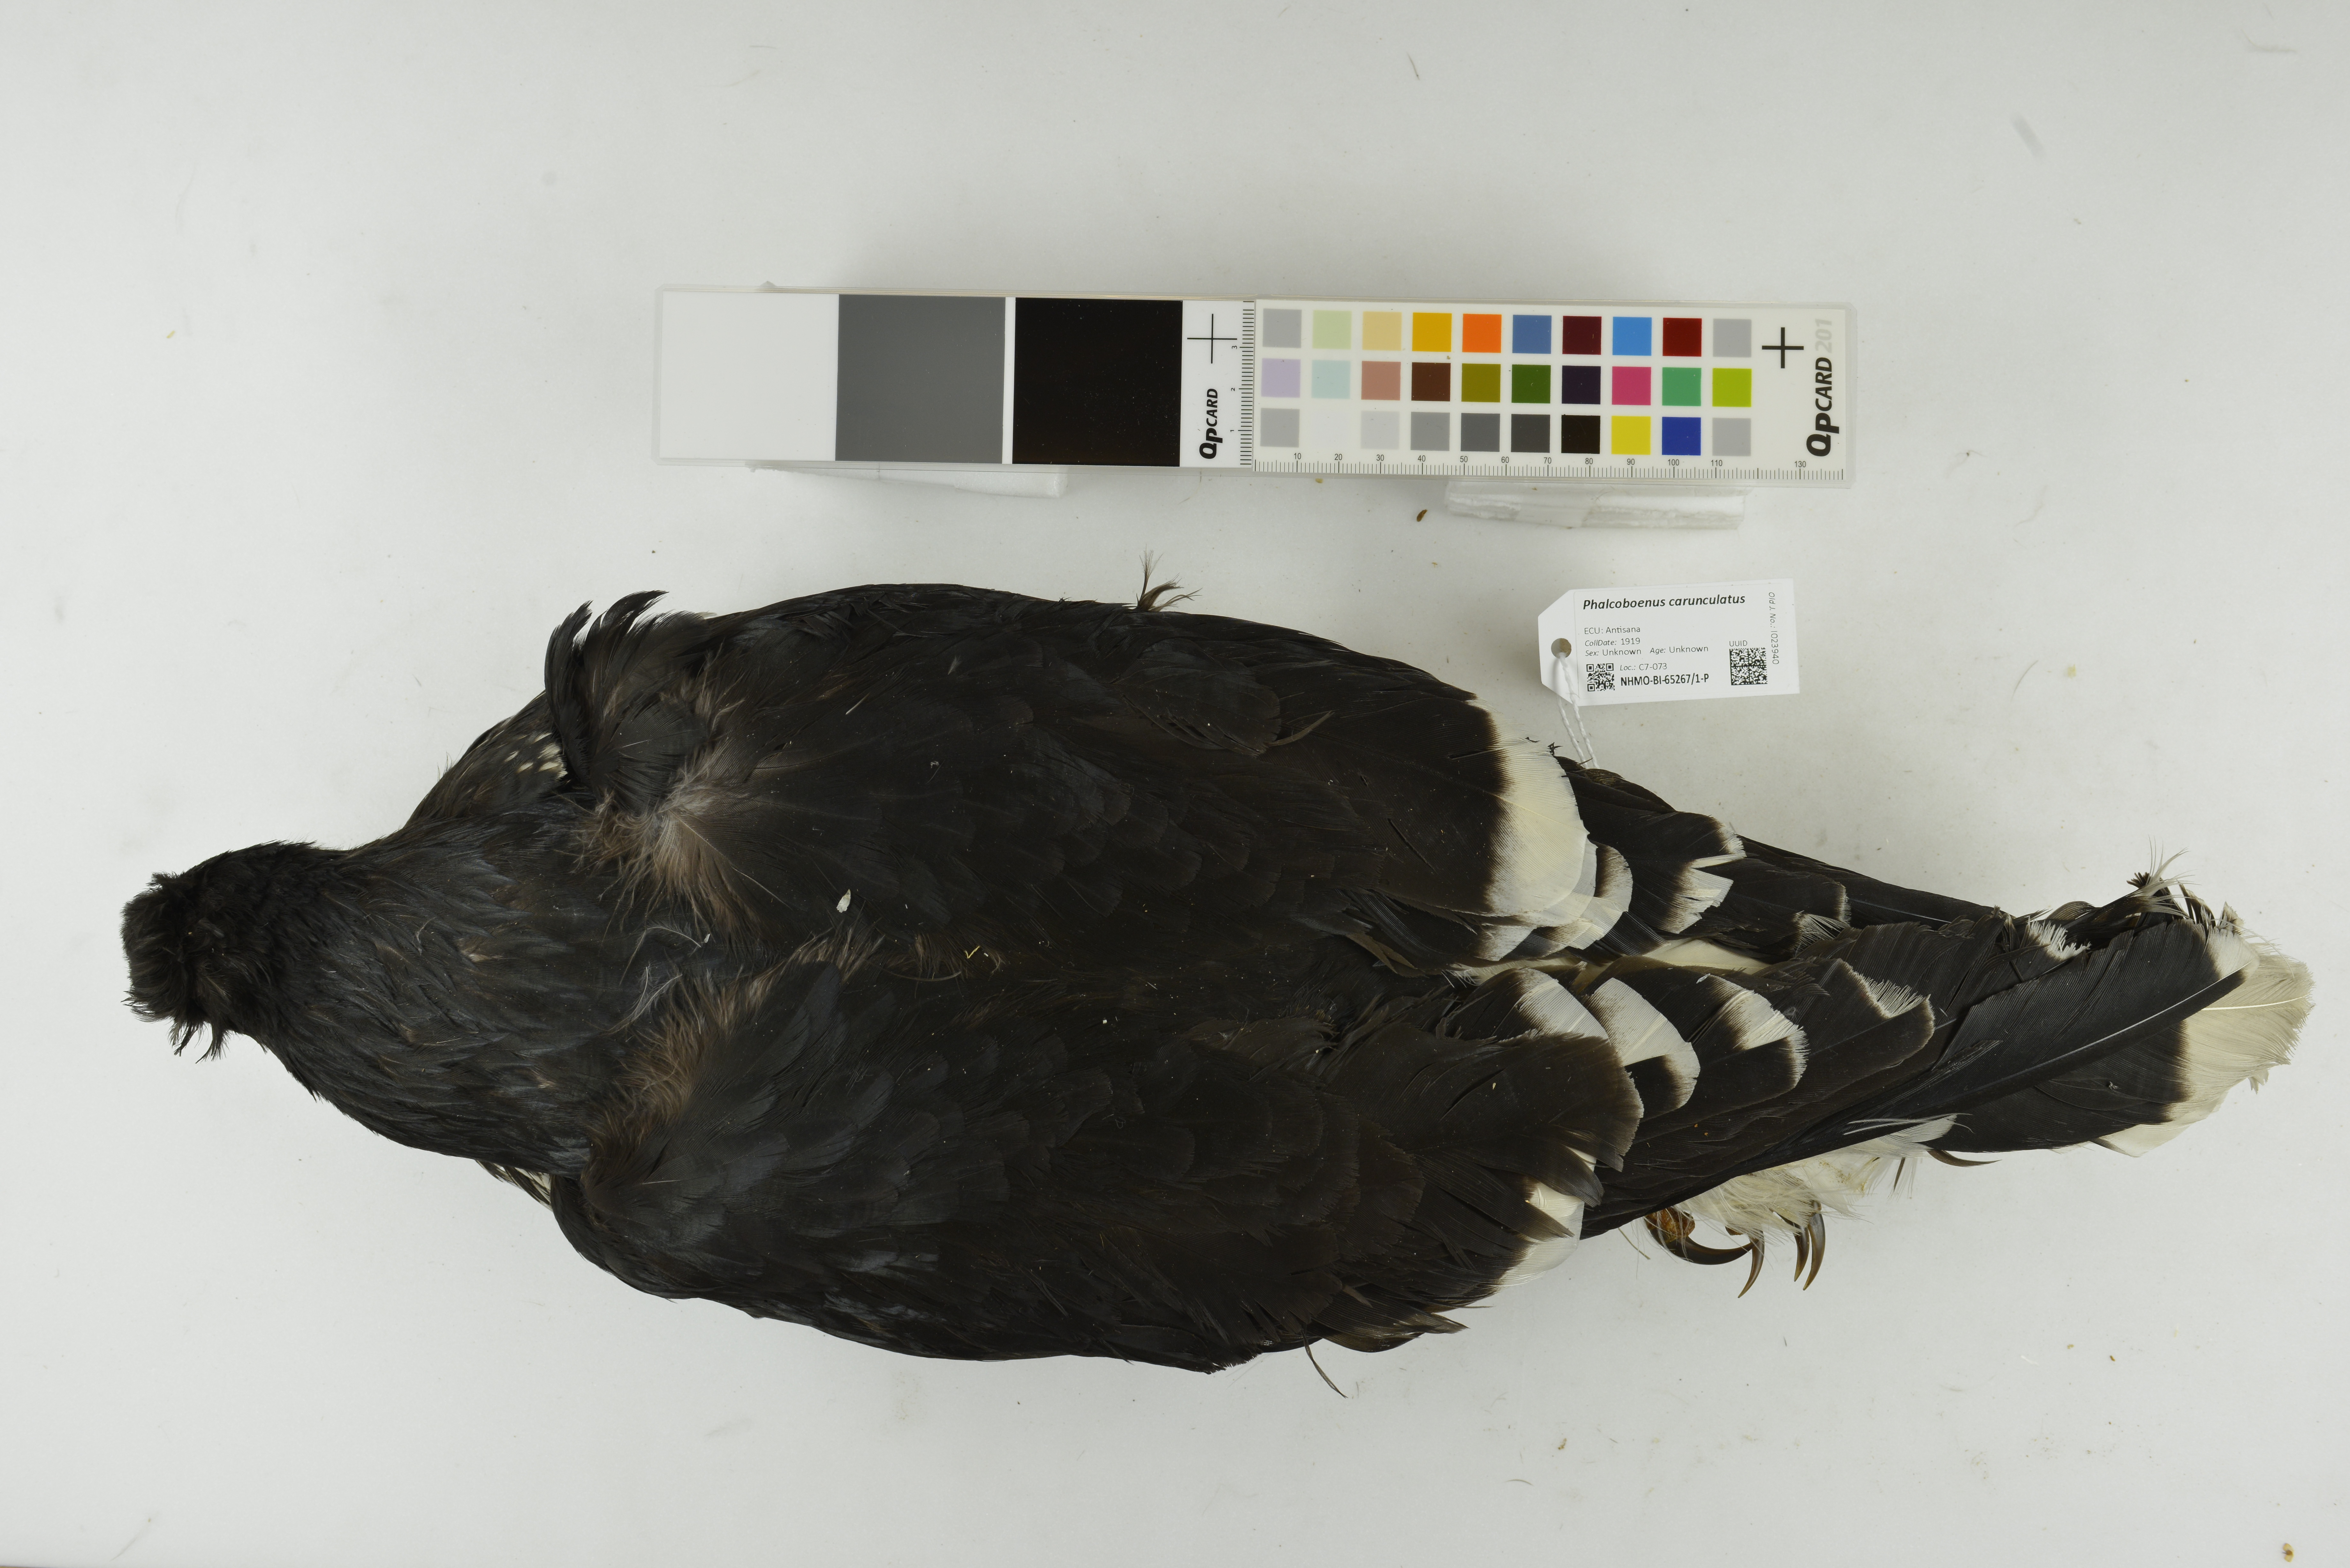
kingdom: Animalia
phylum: Chordata
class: Aves
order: Falconiformes
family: Falconidae
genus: Phalcoboenus
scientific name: Phalcoboenus carunculatus
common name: Carunculated caracara
